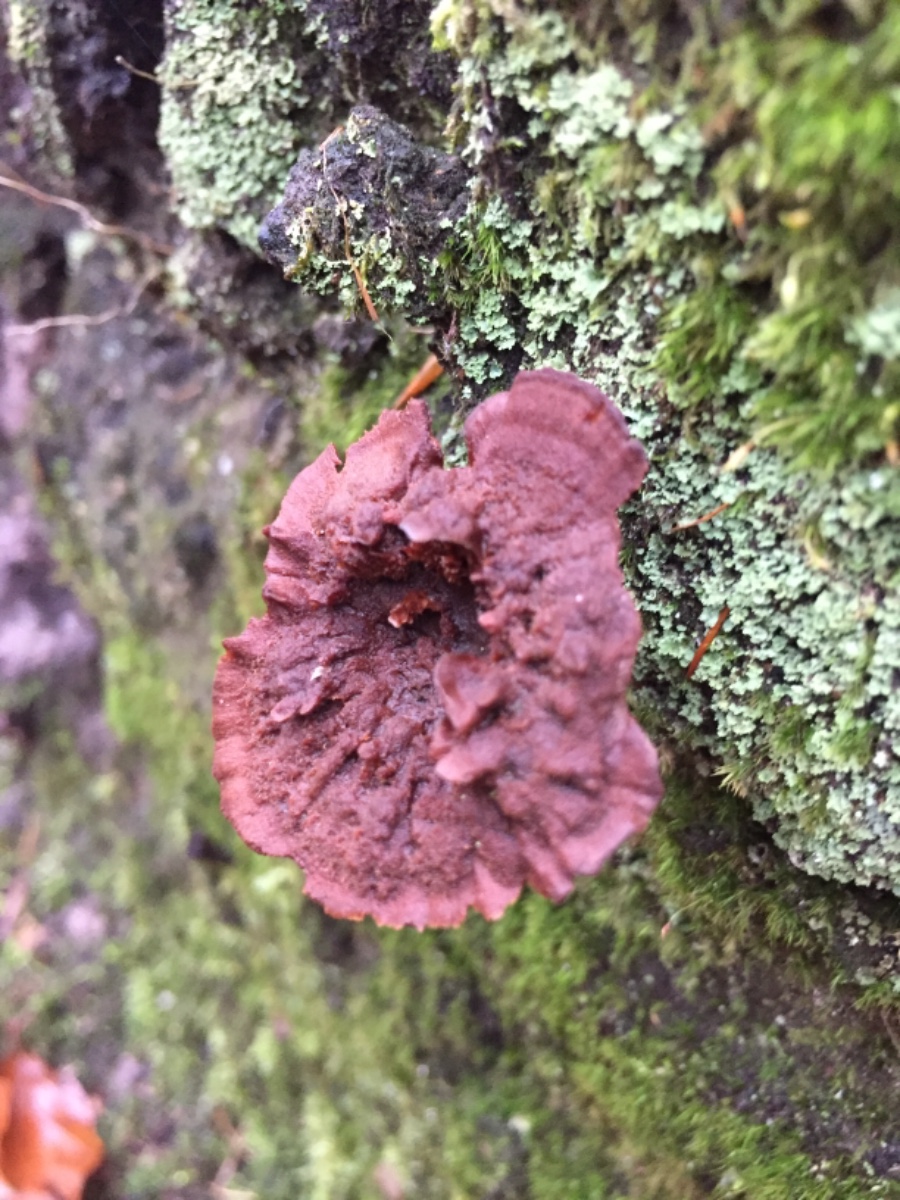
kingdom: Fungi
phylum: Basidiomycota
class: Agaricomycetes
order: Hymenochaetales
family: Hymenochaetaceae
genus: Coltricia
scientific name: Coltricia perennis
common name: almindelig sandporesvamp
